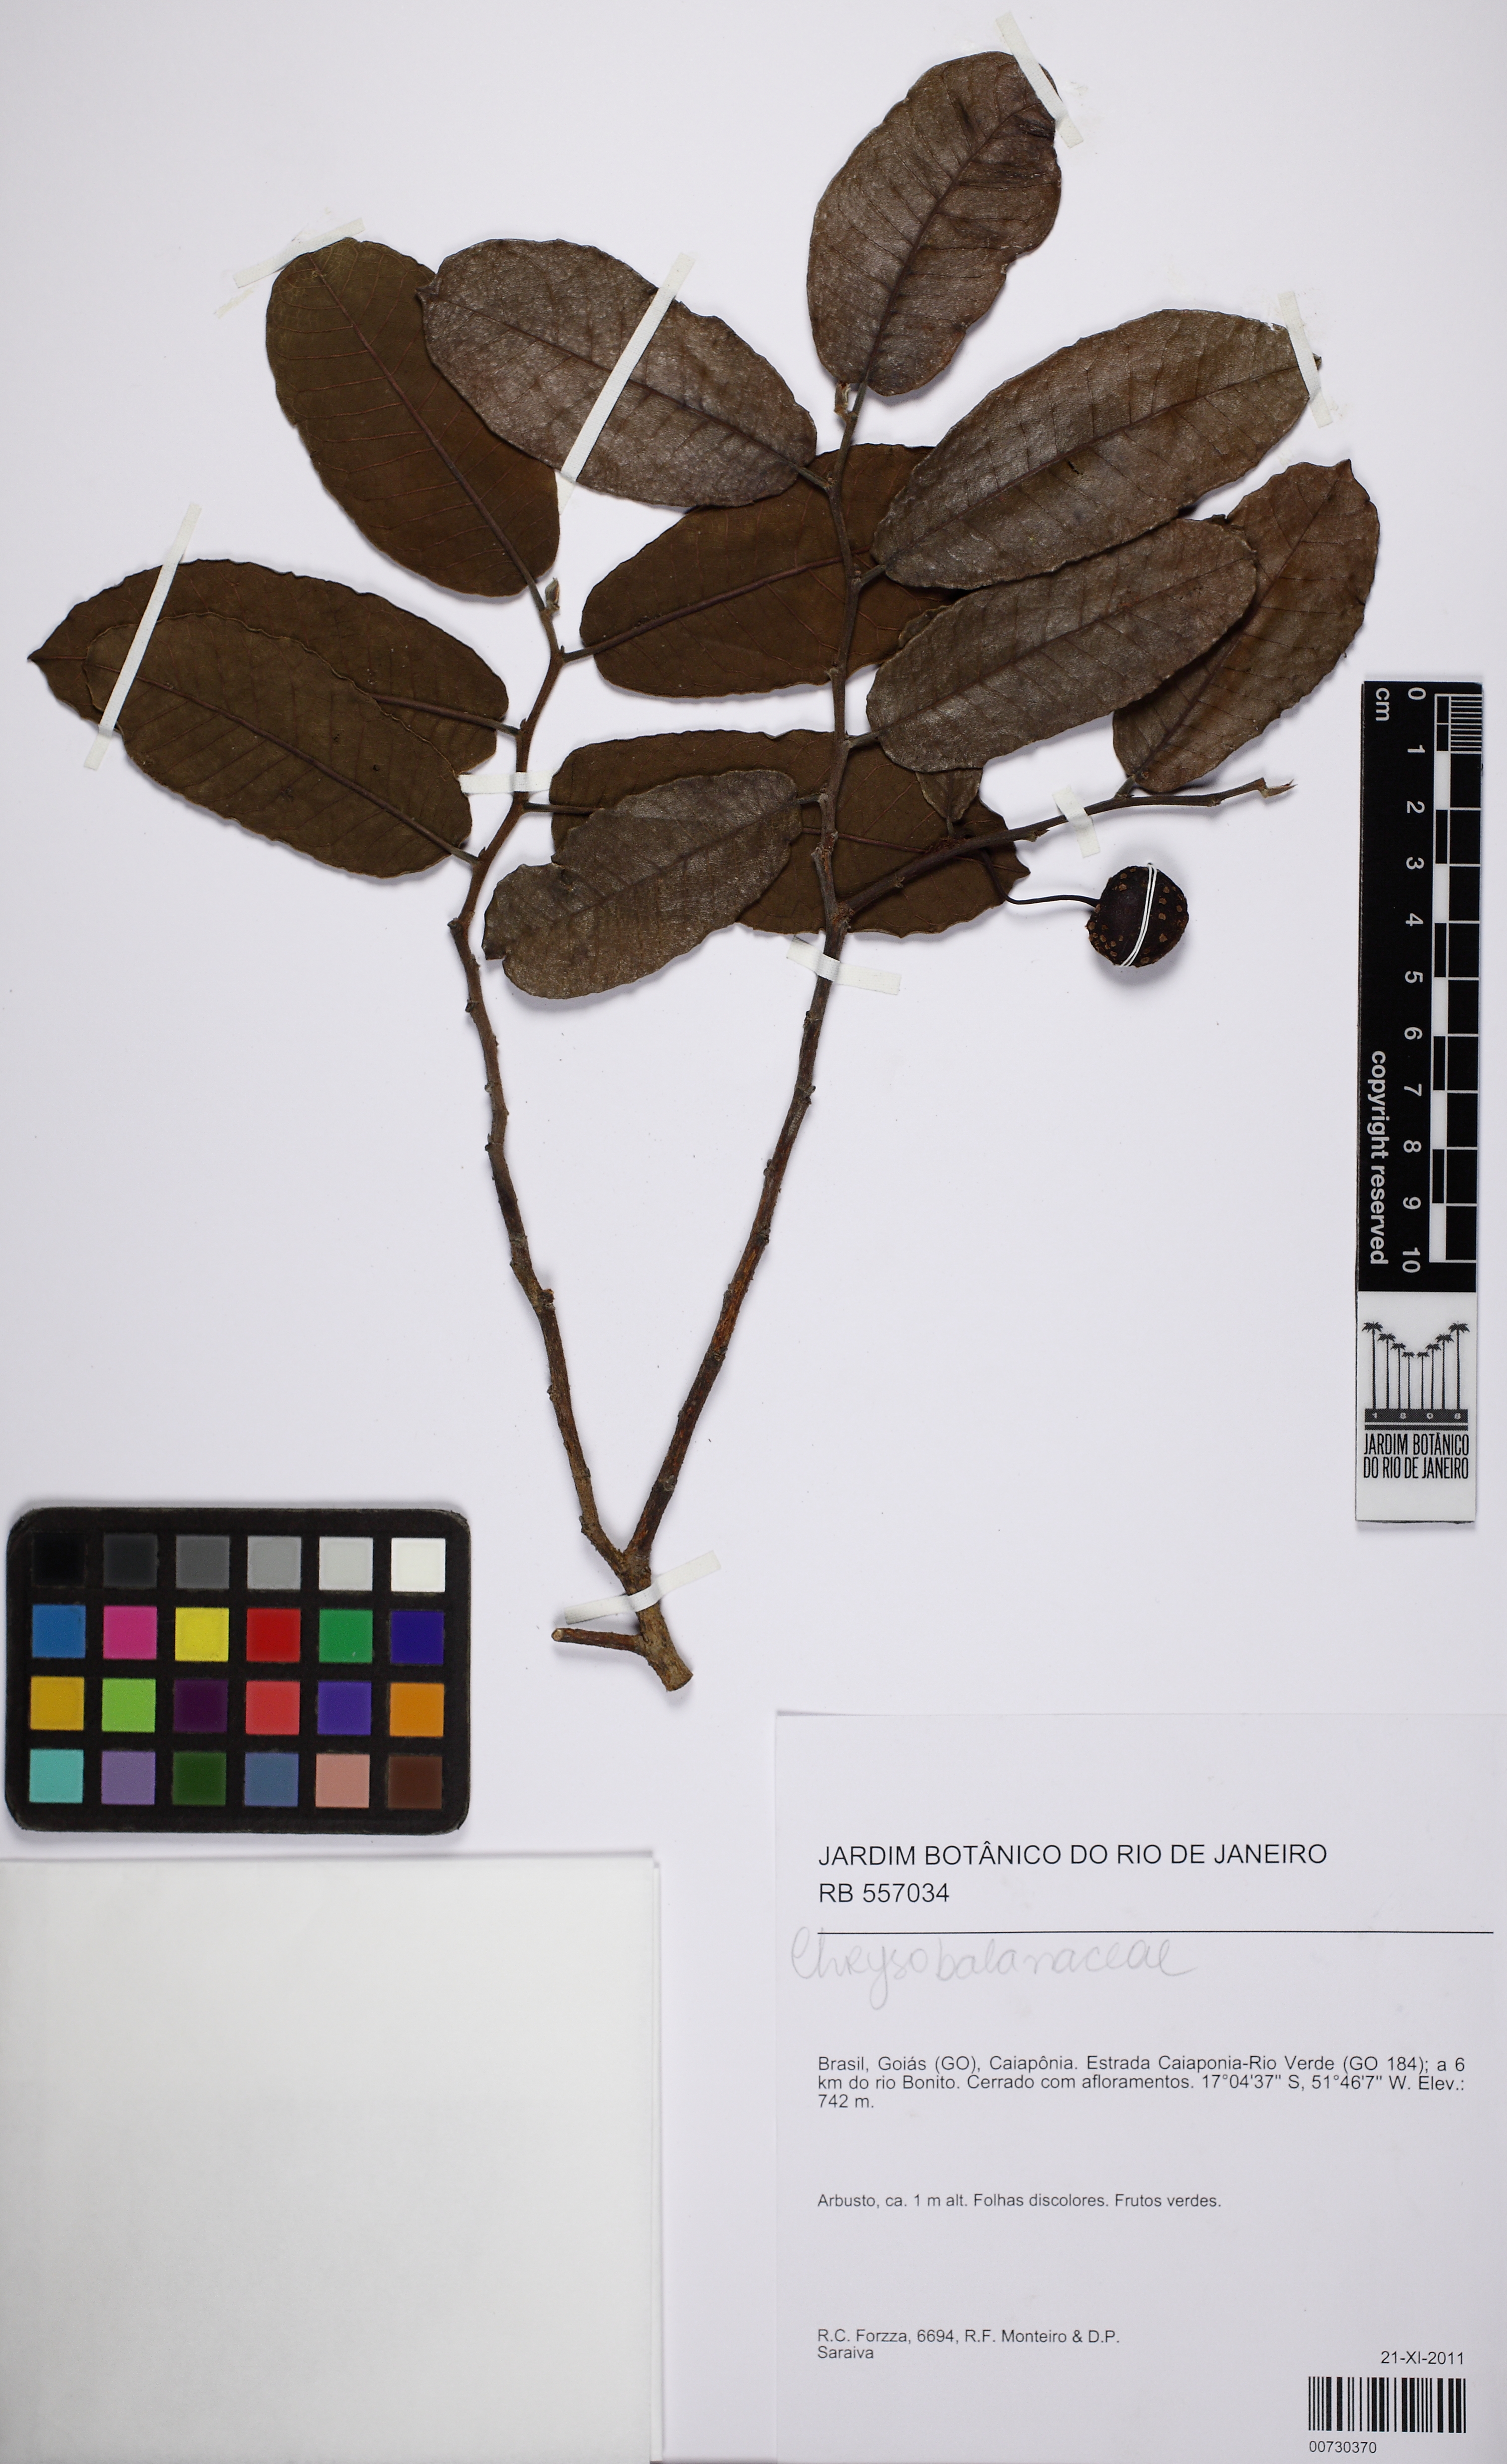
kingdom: Plantae
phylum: Tracheophyta
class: Magnoliopsida
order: Rosales
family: Moraceae
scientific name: Moraceae
